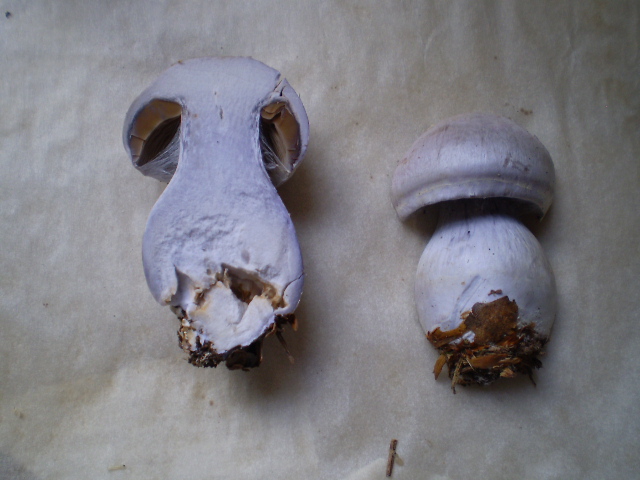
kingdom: Fungi
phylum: Basidiomycota
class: Agaricomycetes
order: Agaricales
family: Cortinariaceae
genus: Cortinarius
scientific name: Cortinarius alboviolaceus
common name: lysviolet slørhat
